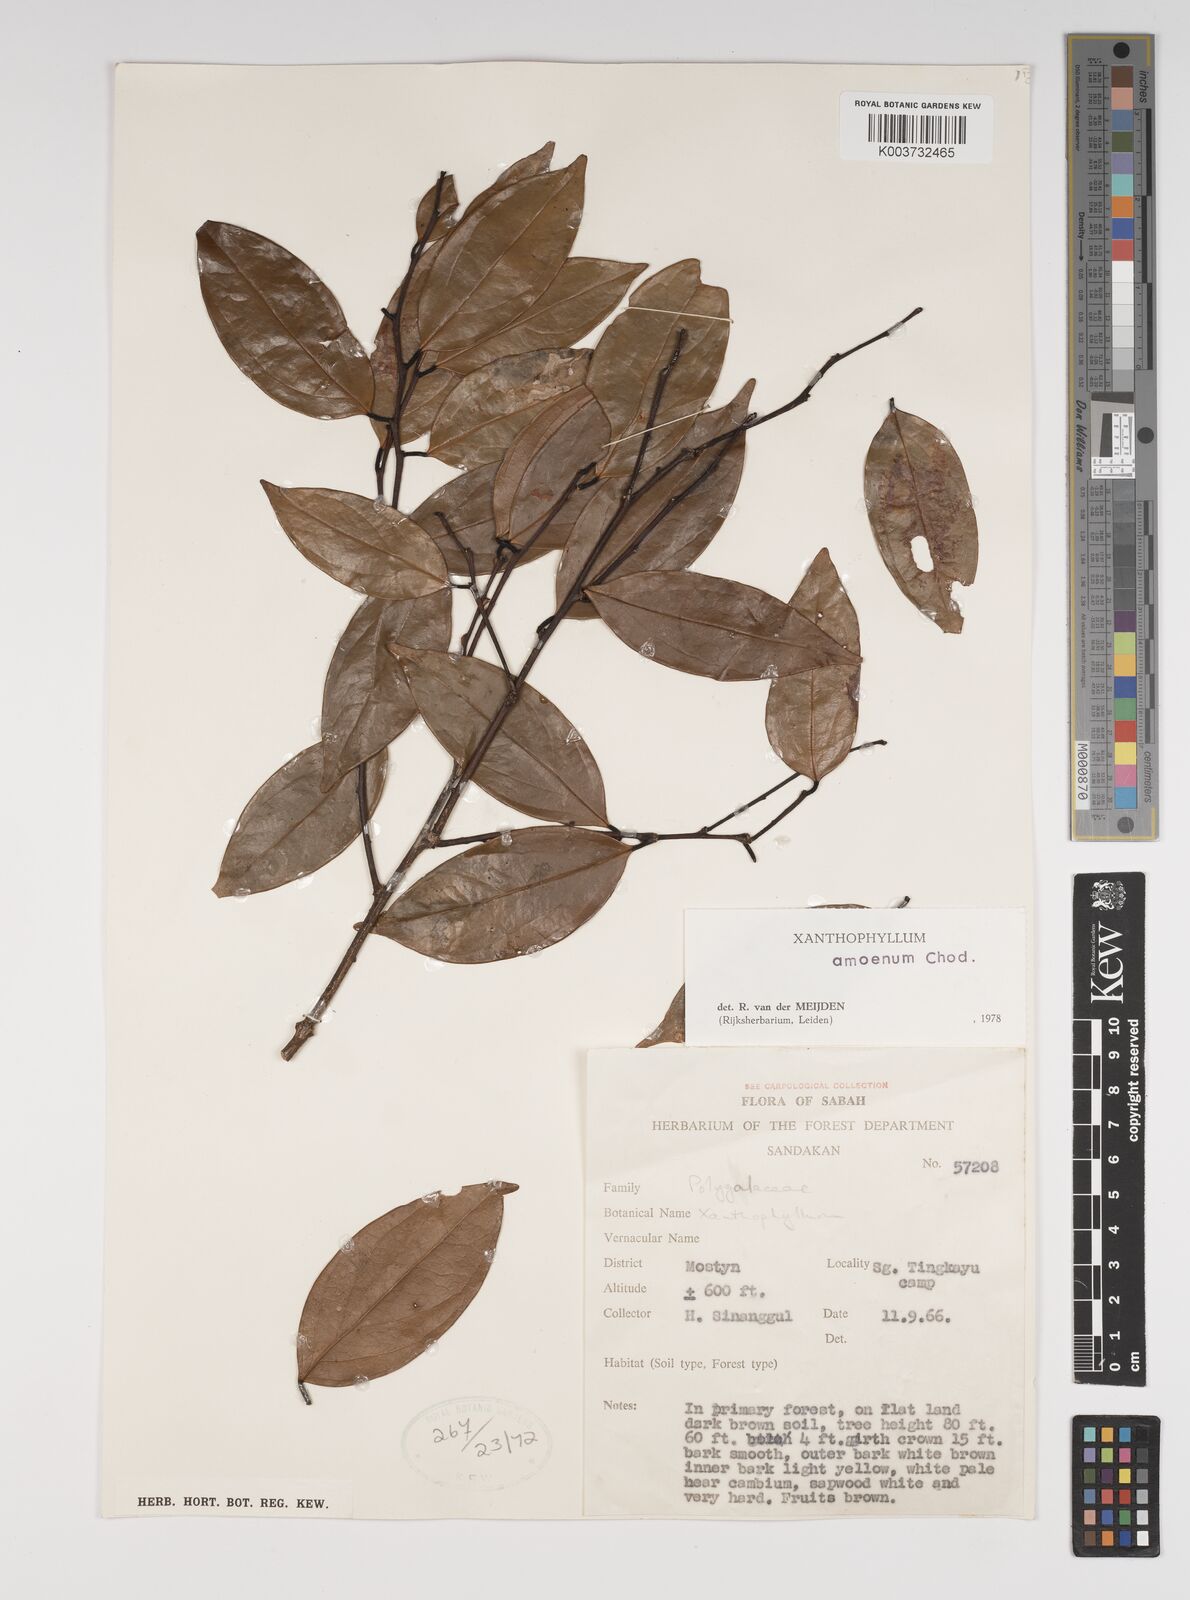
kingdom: Plantae
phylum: Tracheophyta
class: Magnoliopsida
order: Fabales
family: Polygalaceae
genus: Xanthophyllum
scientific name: Xanthophyllum stipitatum
